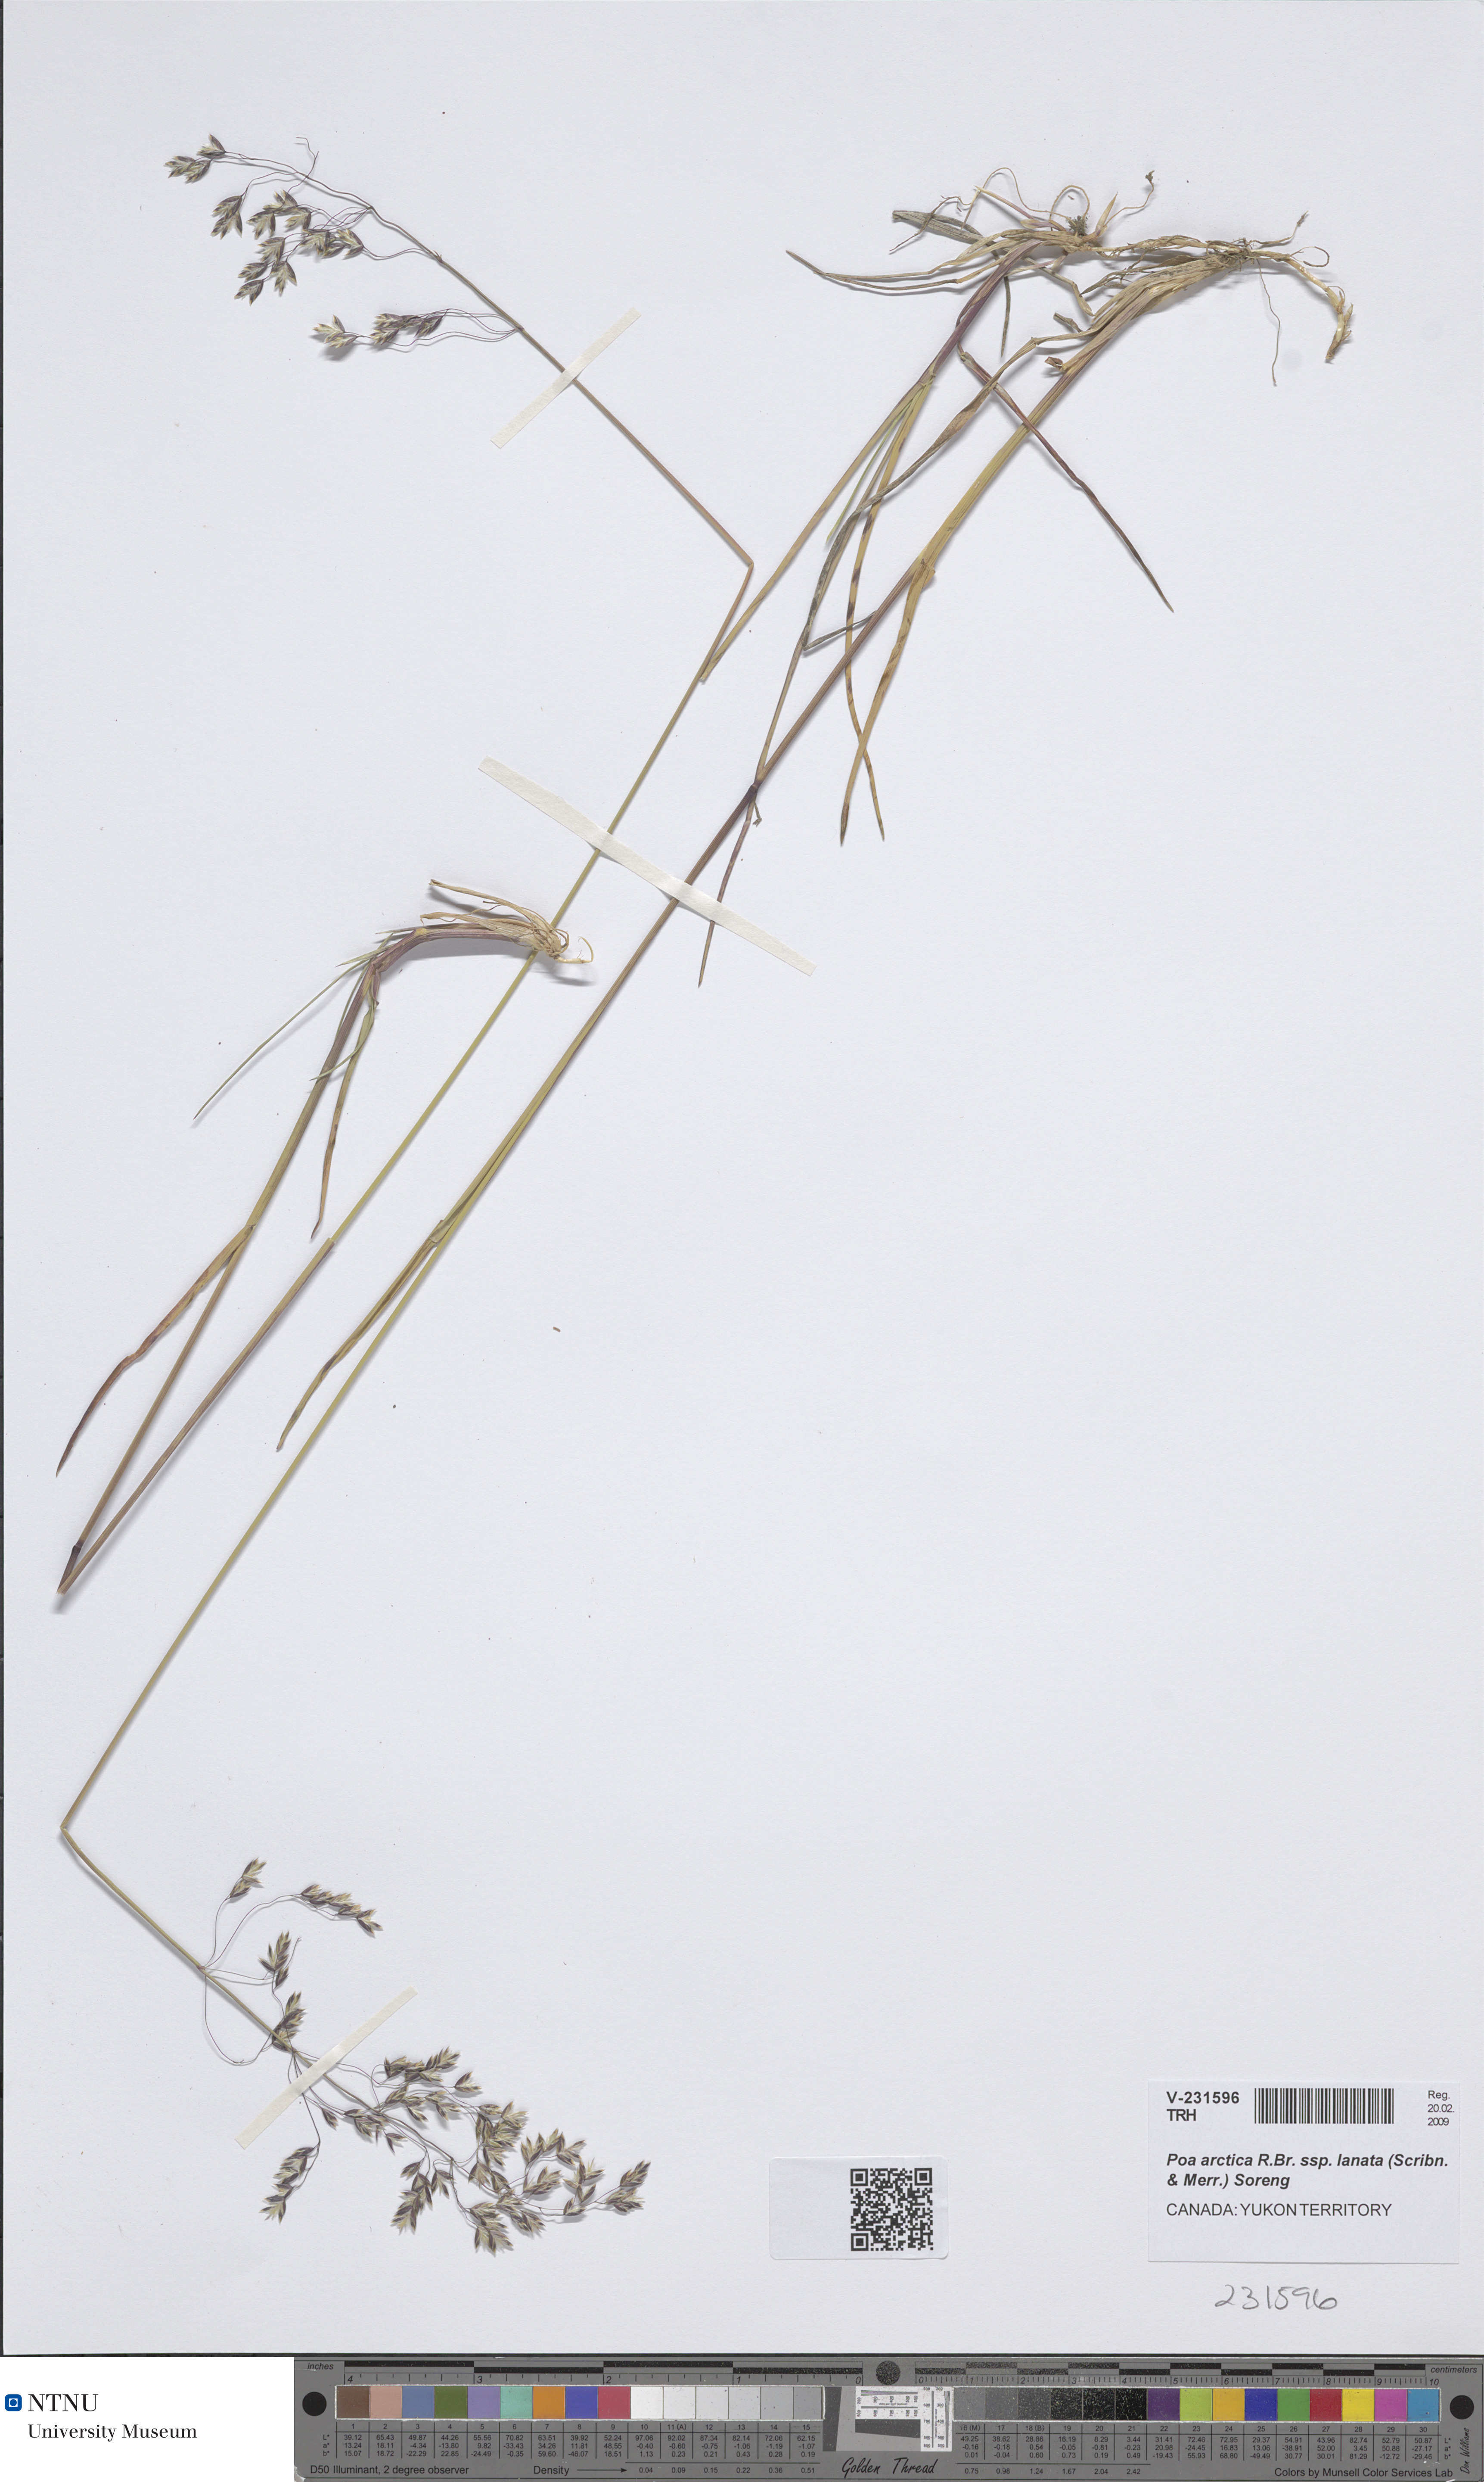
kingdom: Plantae
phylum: Tracheophyta
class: Liliopsida
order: Poales
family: Poaceae
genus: Poa
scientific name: Poa lanata
